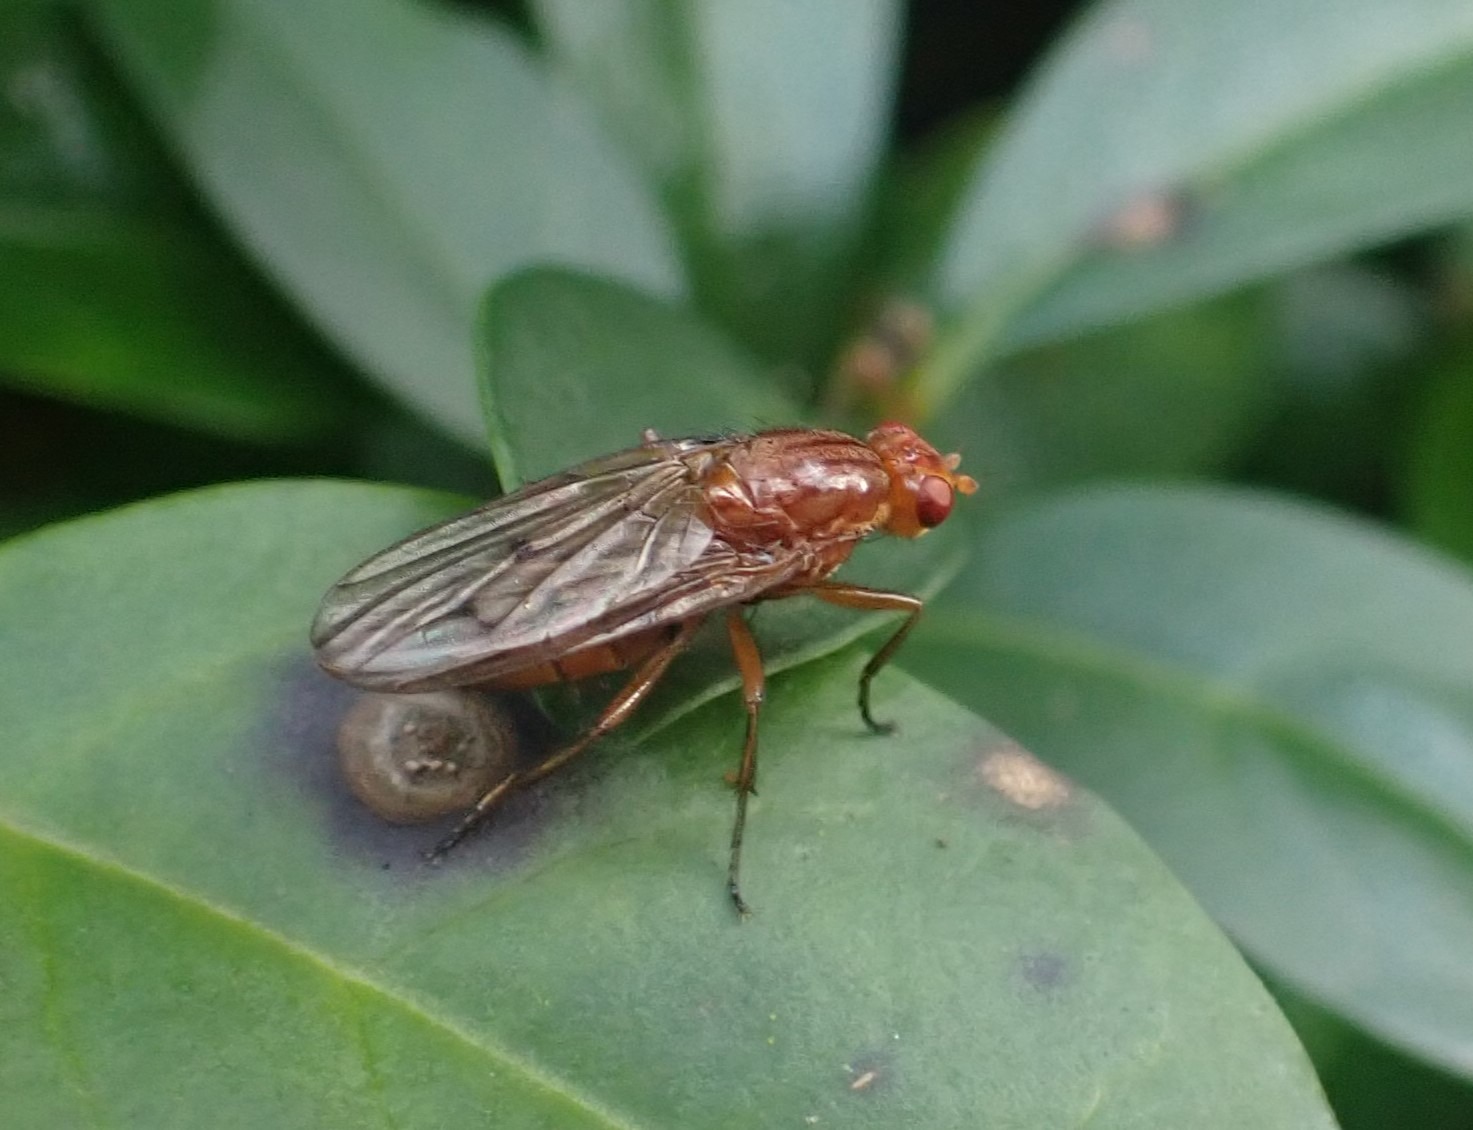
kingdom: Animalia
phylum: Arthropoda
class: Insecta
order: Diptera
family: Dryomyzidae
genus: Dryomyza
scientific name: Dryomyza anilis
